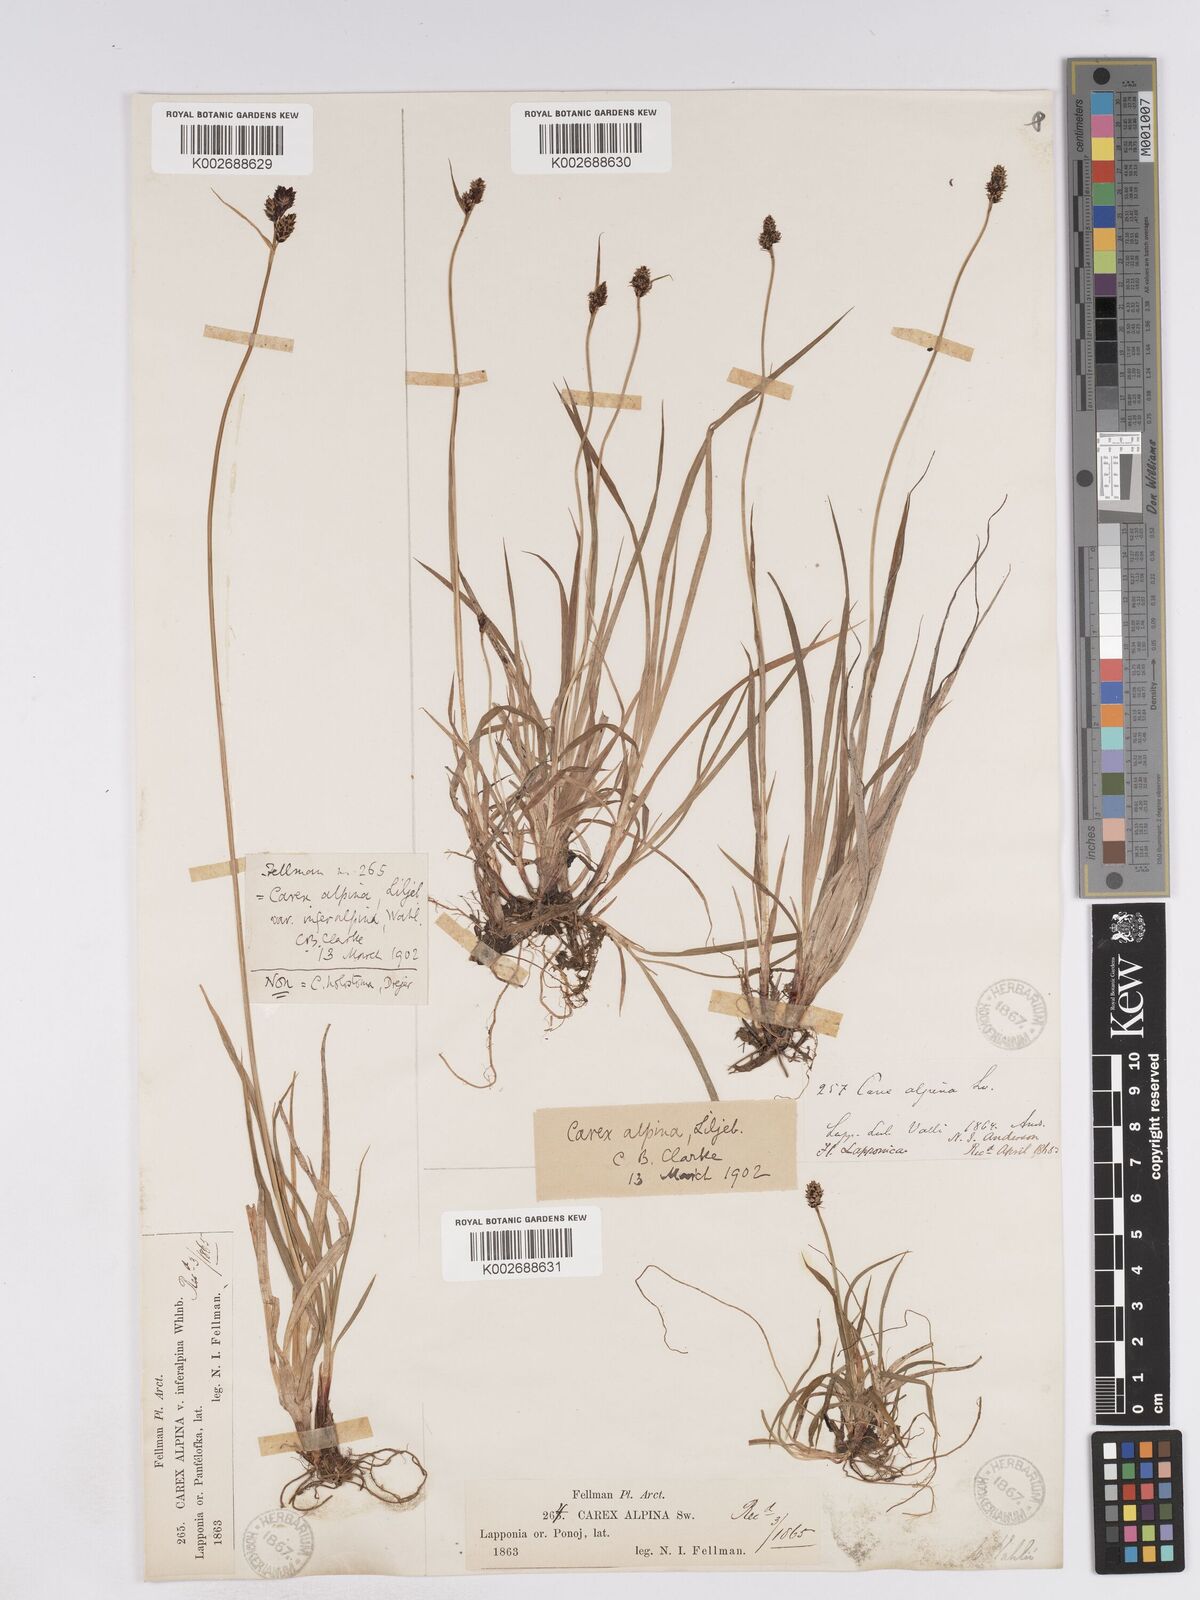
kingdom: Plantae
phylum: Tracheophyta
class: Liliopsida
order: Poales
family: Cyperaceae
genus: Carex
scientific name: Carex norvegica
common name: Close-headed alpine-sedge
